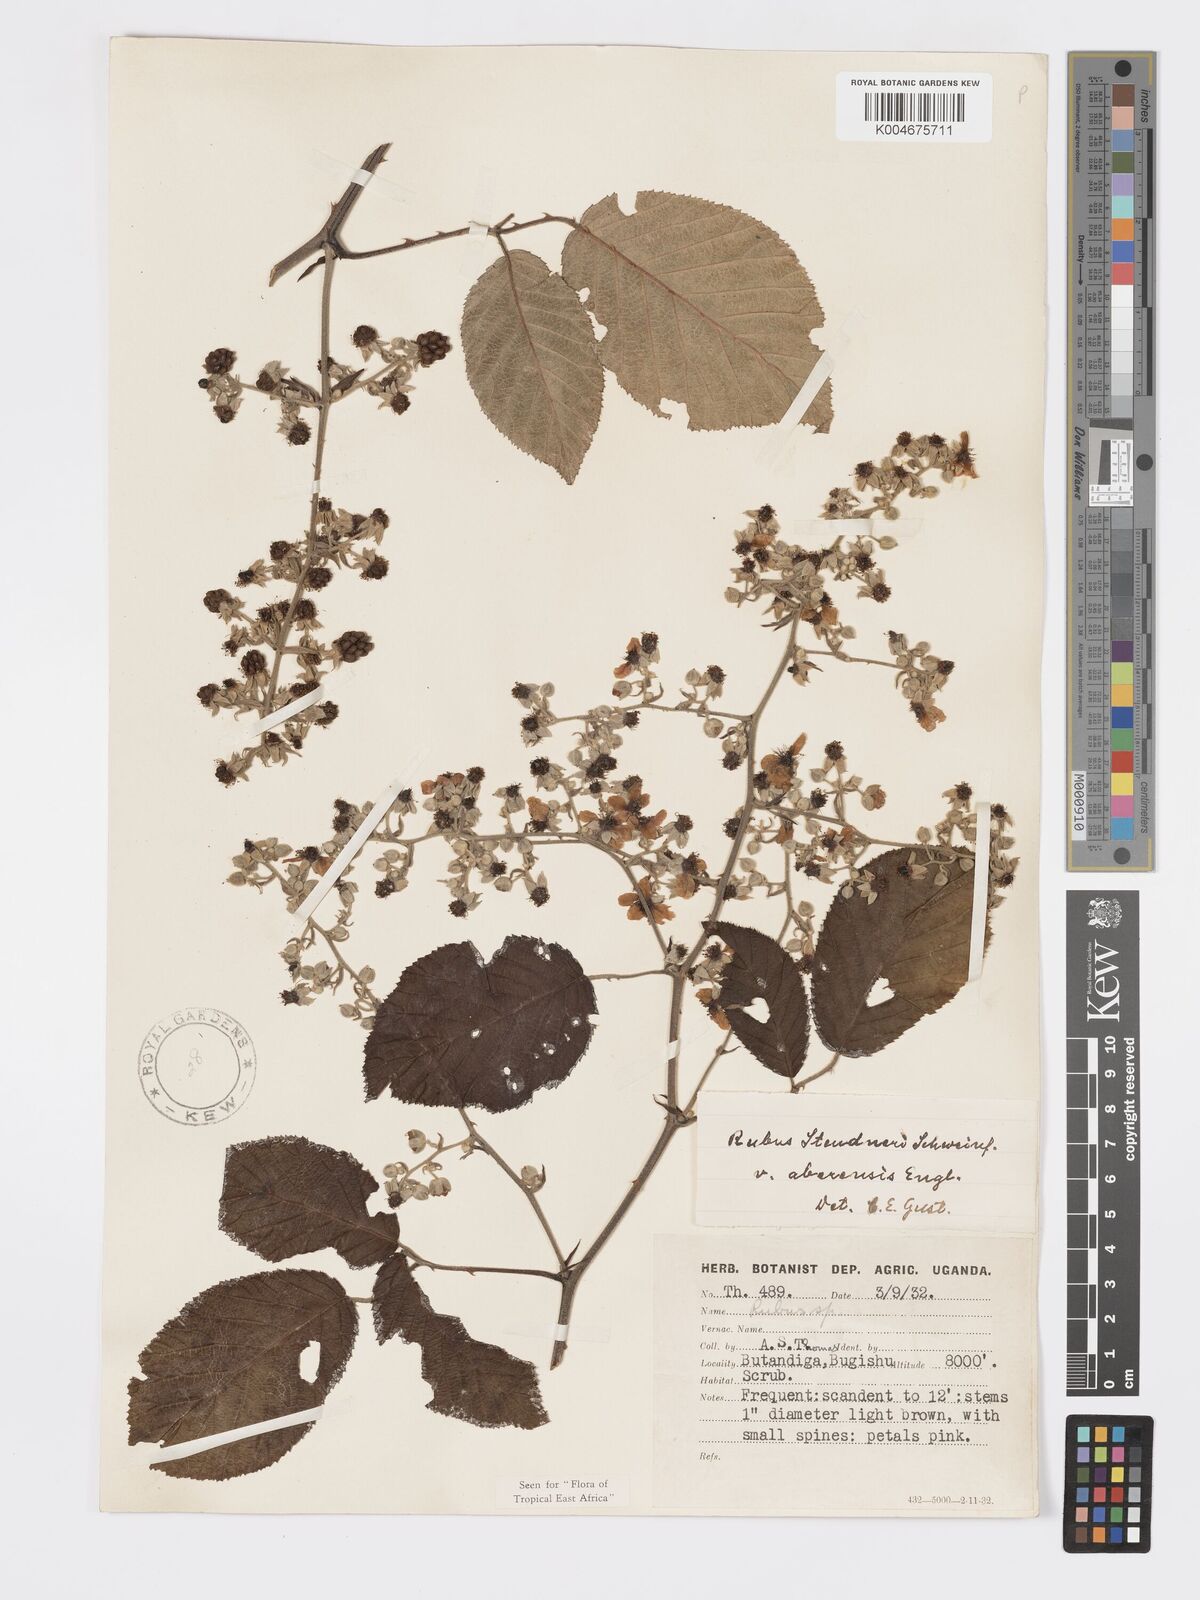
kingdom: Plantae
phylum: Tracheophyta
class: Magnoliopsida
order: Rosales
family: Rosaceae
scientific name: Rosaceae
